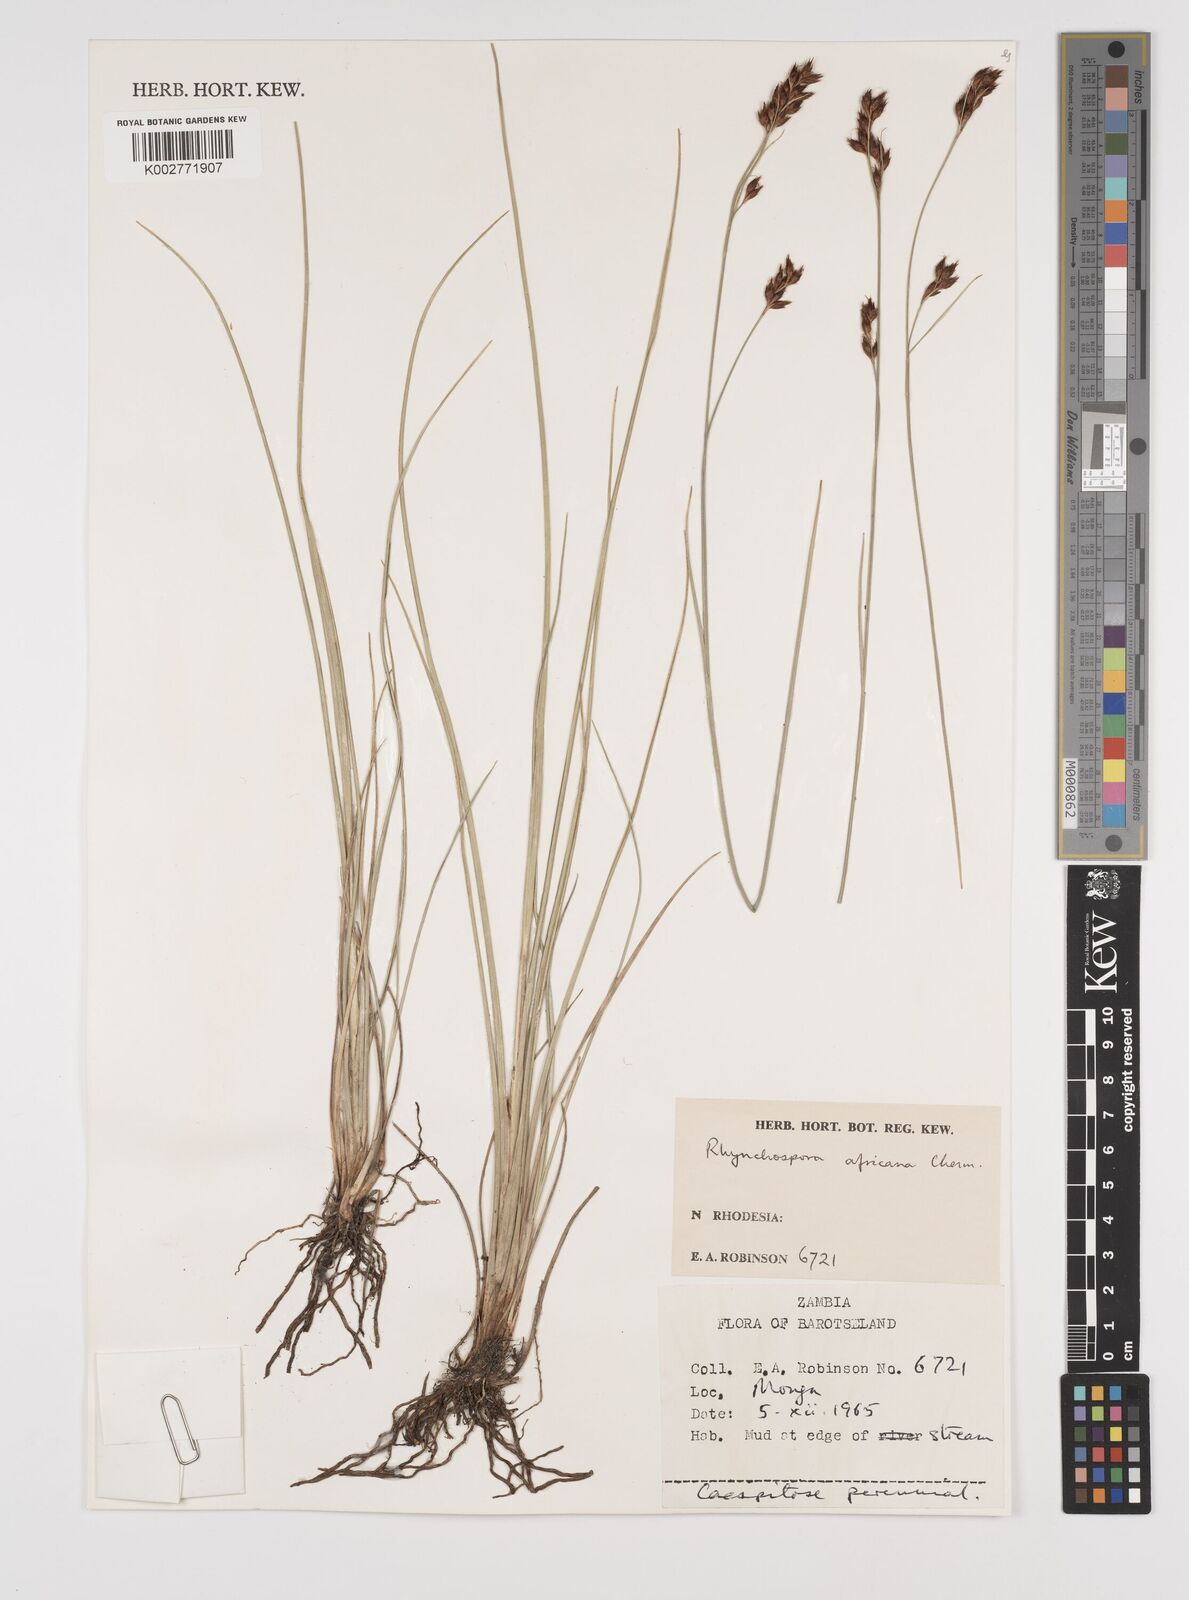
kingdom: Plantae
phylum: Tracheophyta
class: Liliopsida
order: Poales
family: Cyperaceae
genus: Rhynchospora
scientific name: Rhynchospora angolensis
